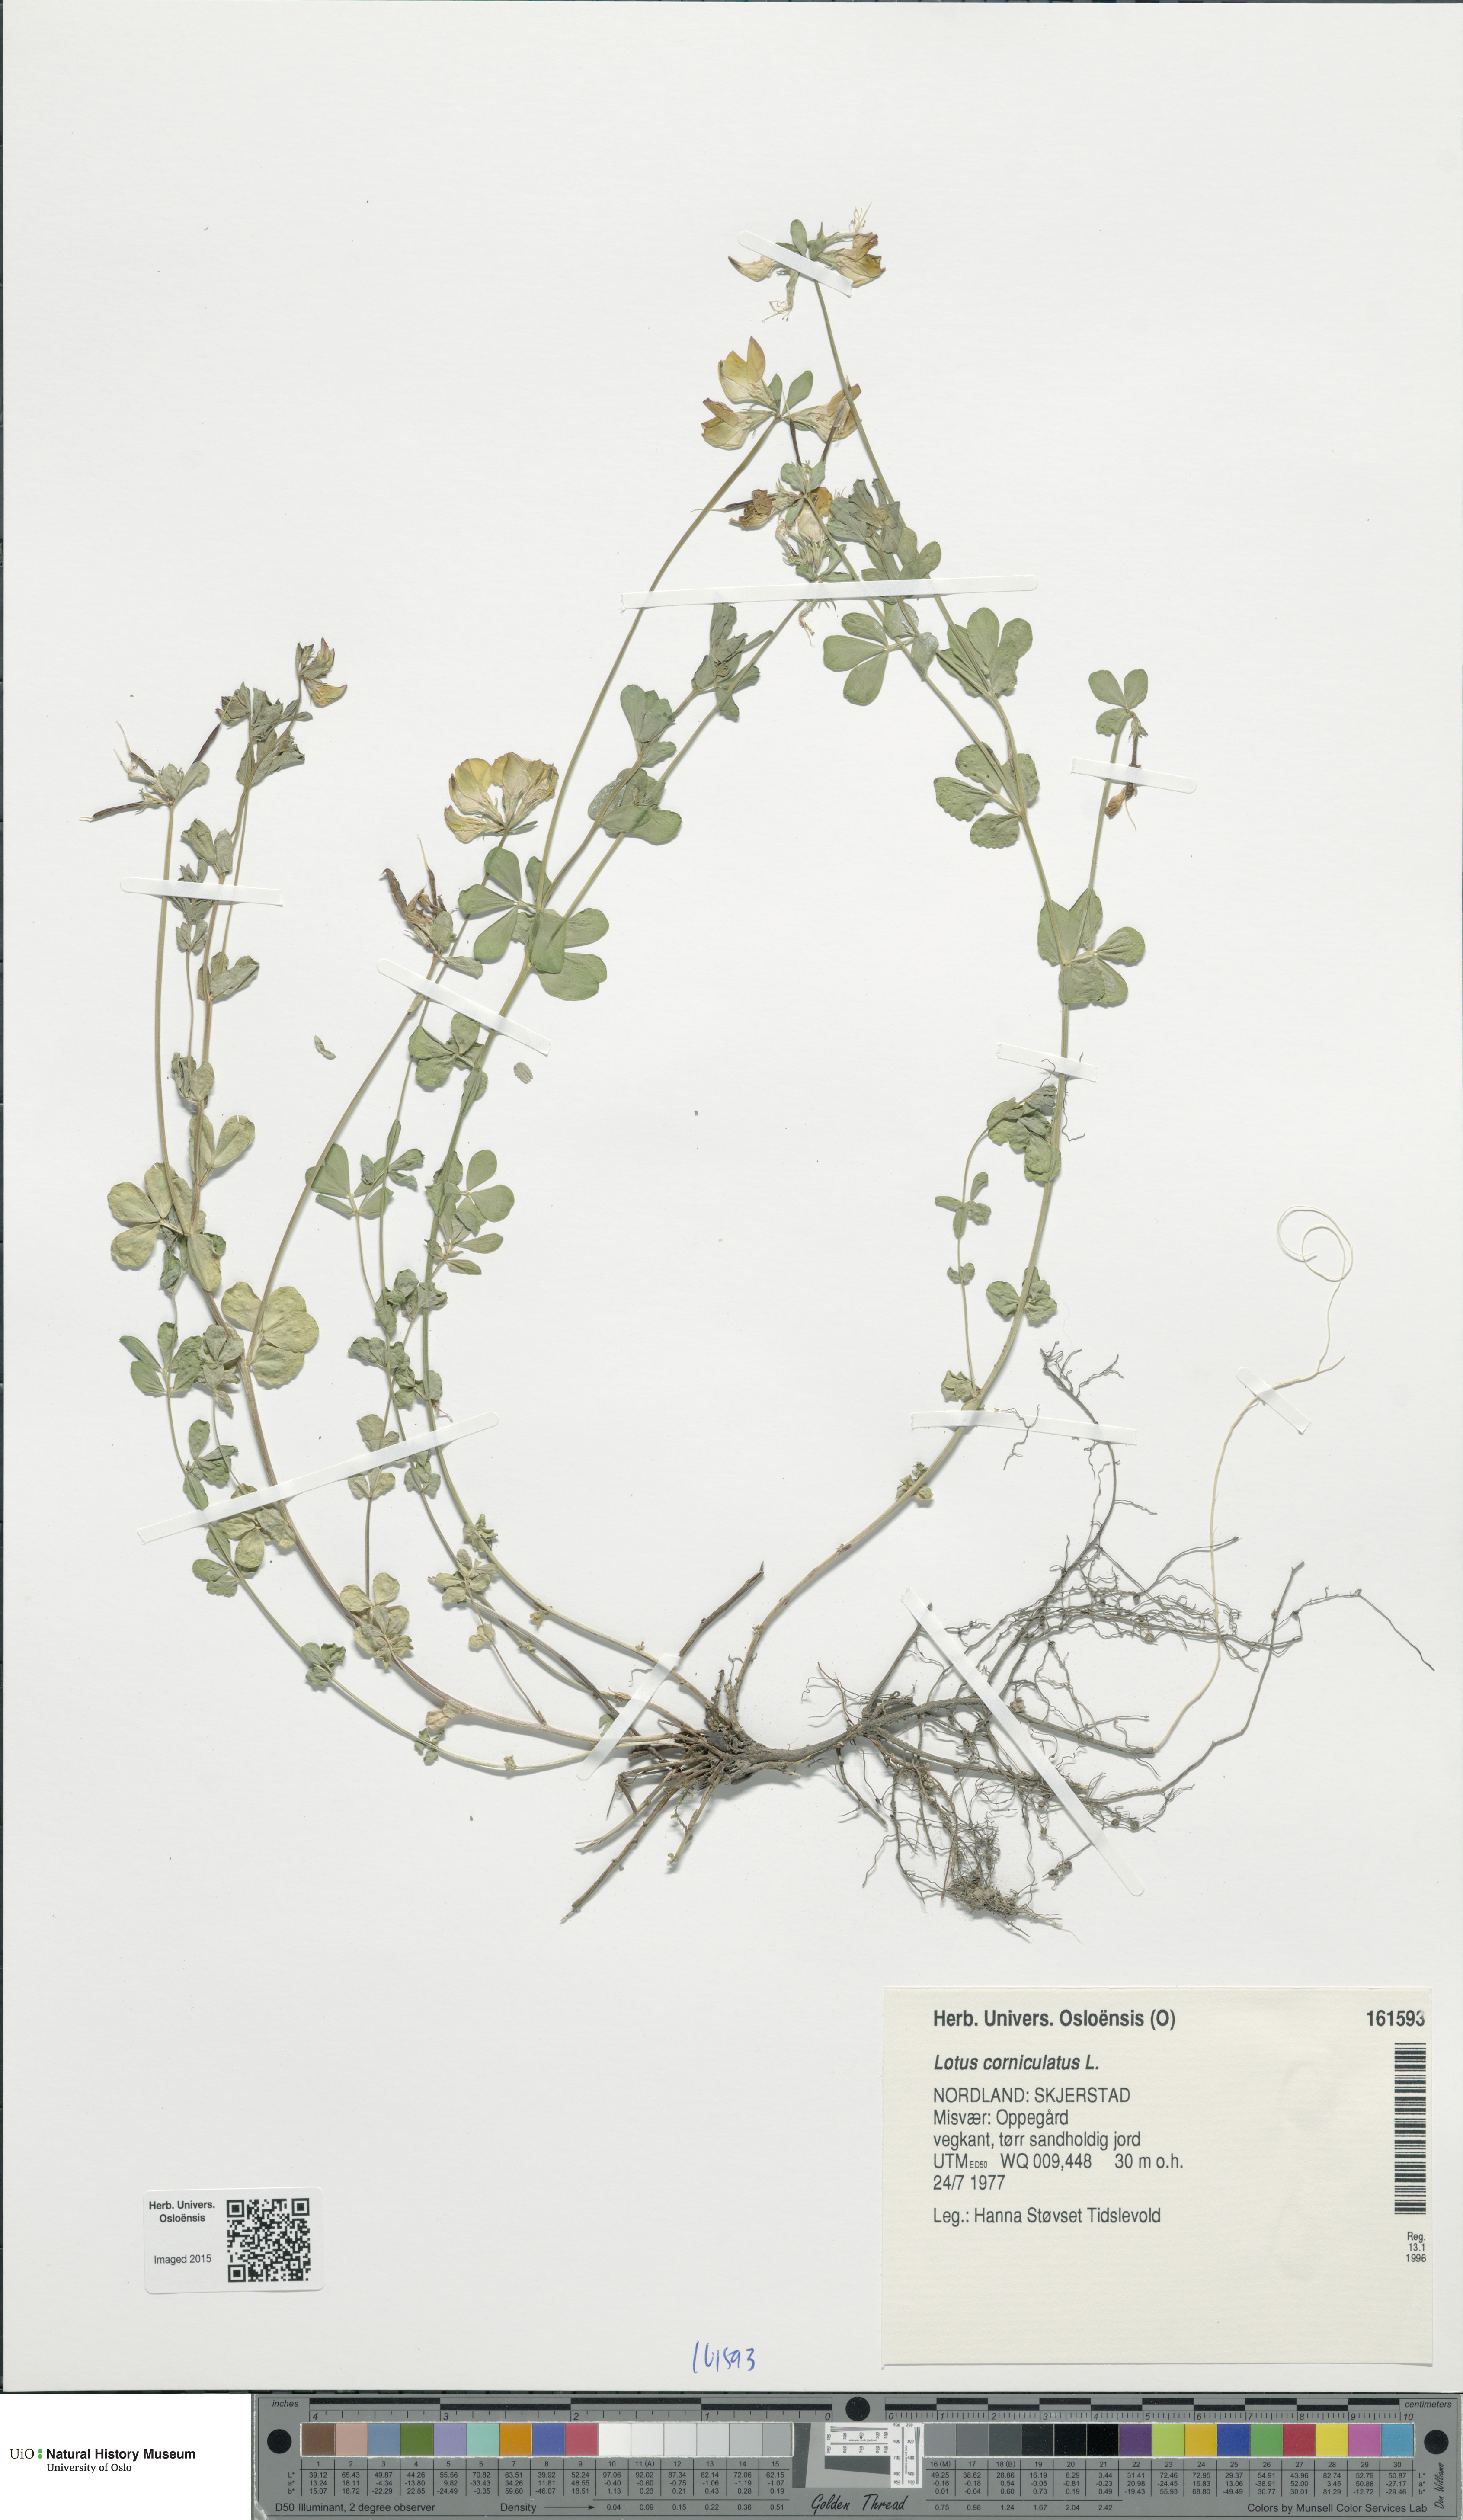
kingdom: Plantae
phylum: Tracheophyta
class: Magnoliopsida
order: Fabales
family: Fabaceae
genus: Lotus
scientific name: Lotus corniculatus
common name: Common bird's-foot-trefoil
